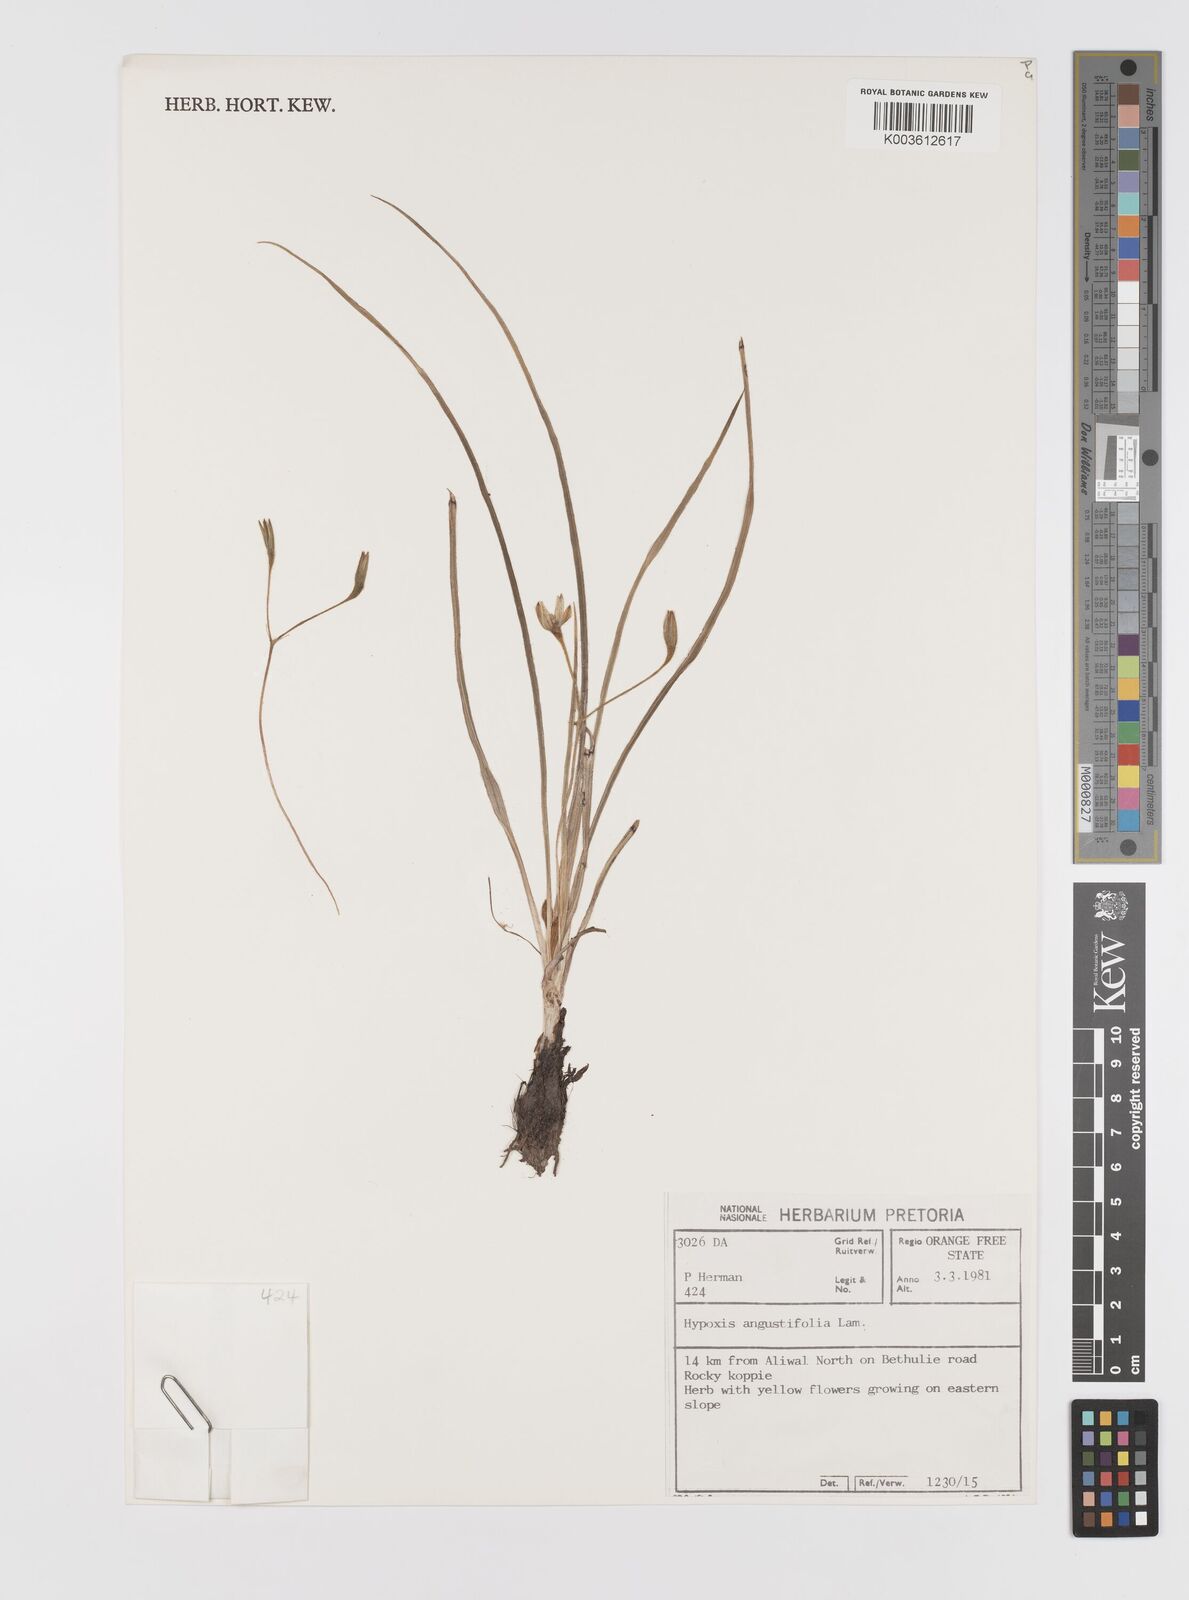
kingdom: Plantae
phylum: Tracheophyta
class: Liliopsida
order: Asparagales
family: Hypoxidaceae
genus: Hypoxis
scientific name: Hypoxis angustifolia
